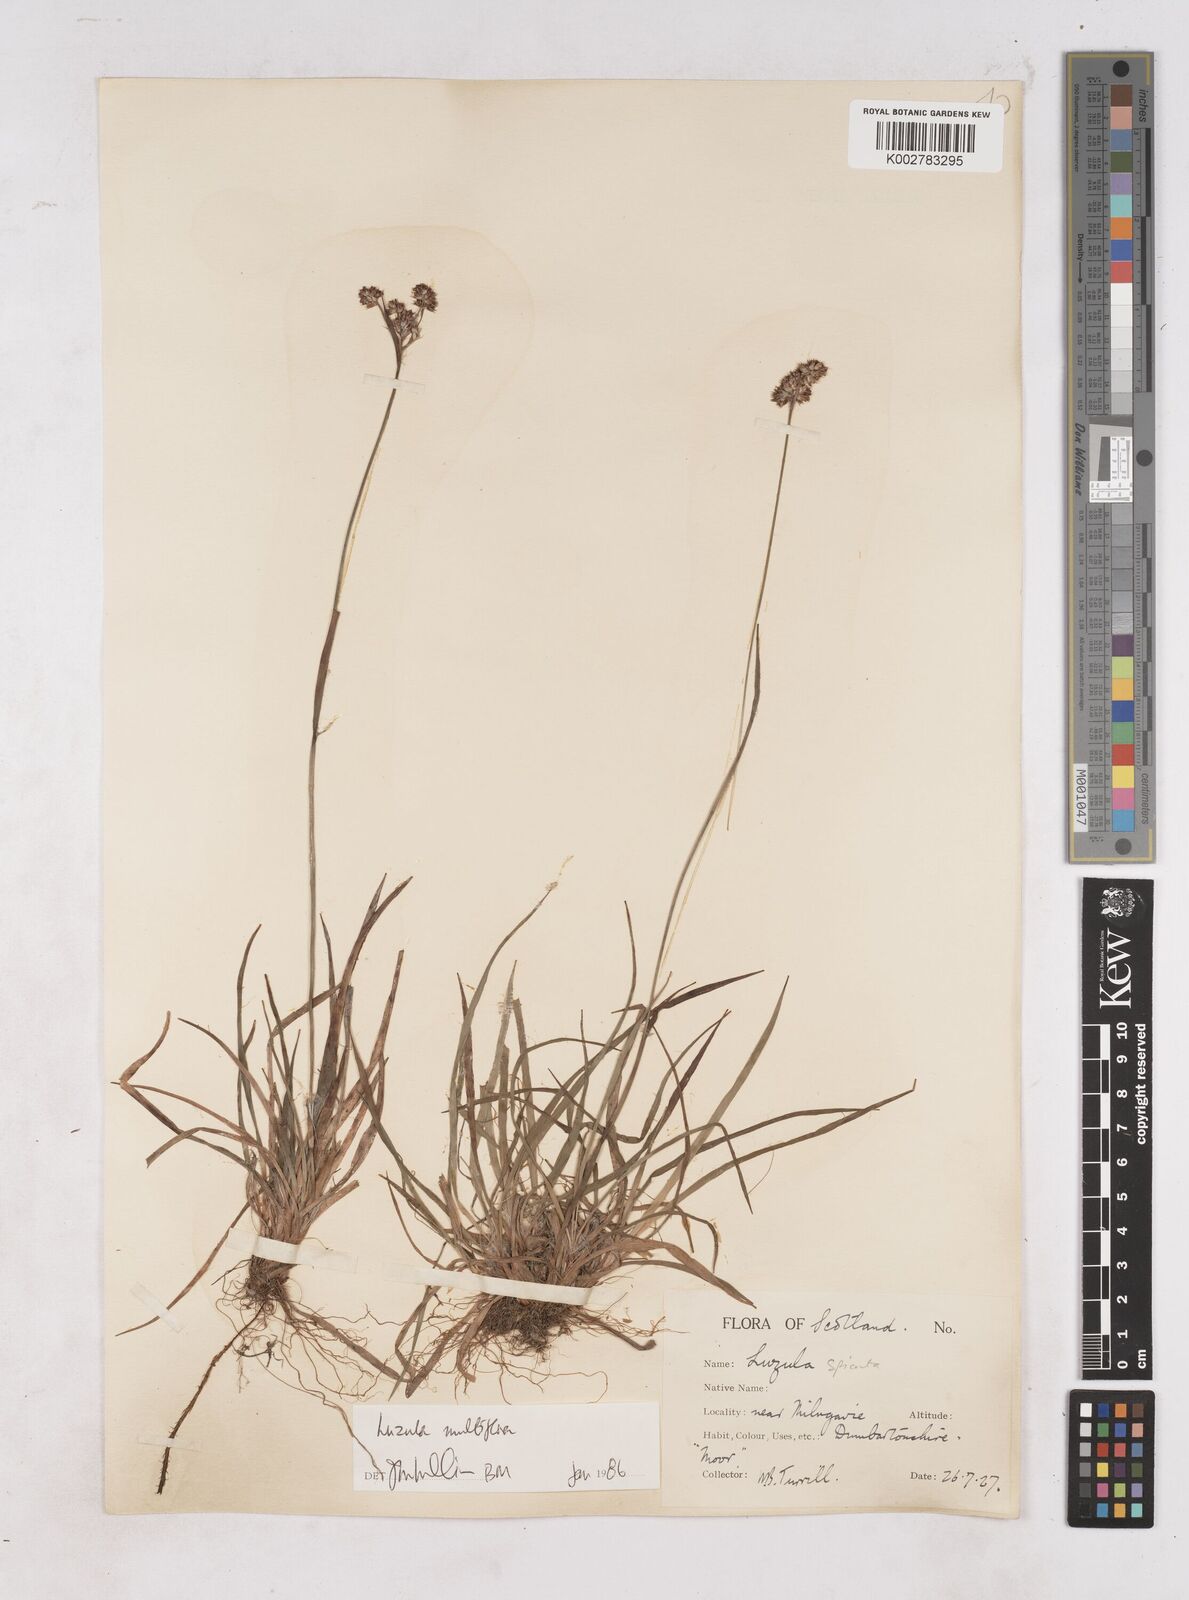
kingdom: Plantae
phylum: Tracheophyta
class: Liliopsida
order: Poales
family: Juncaceae
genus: Luzula
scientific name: Luzula multiflora
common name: Heath wood-rush
